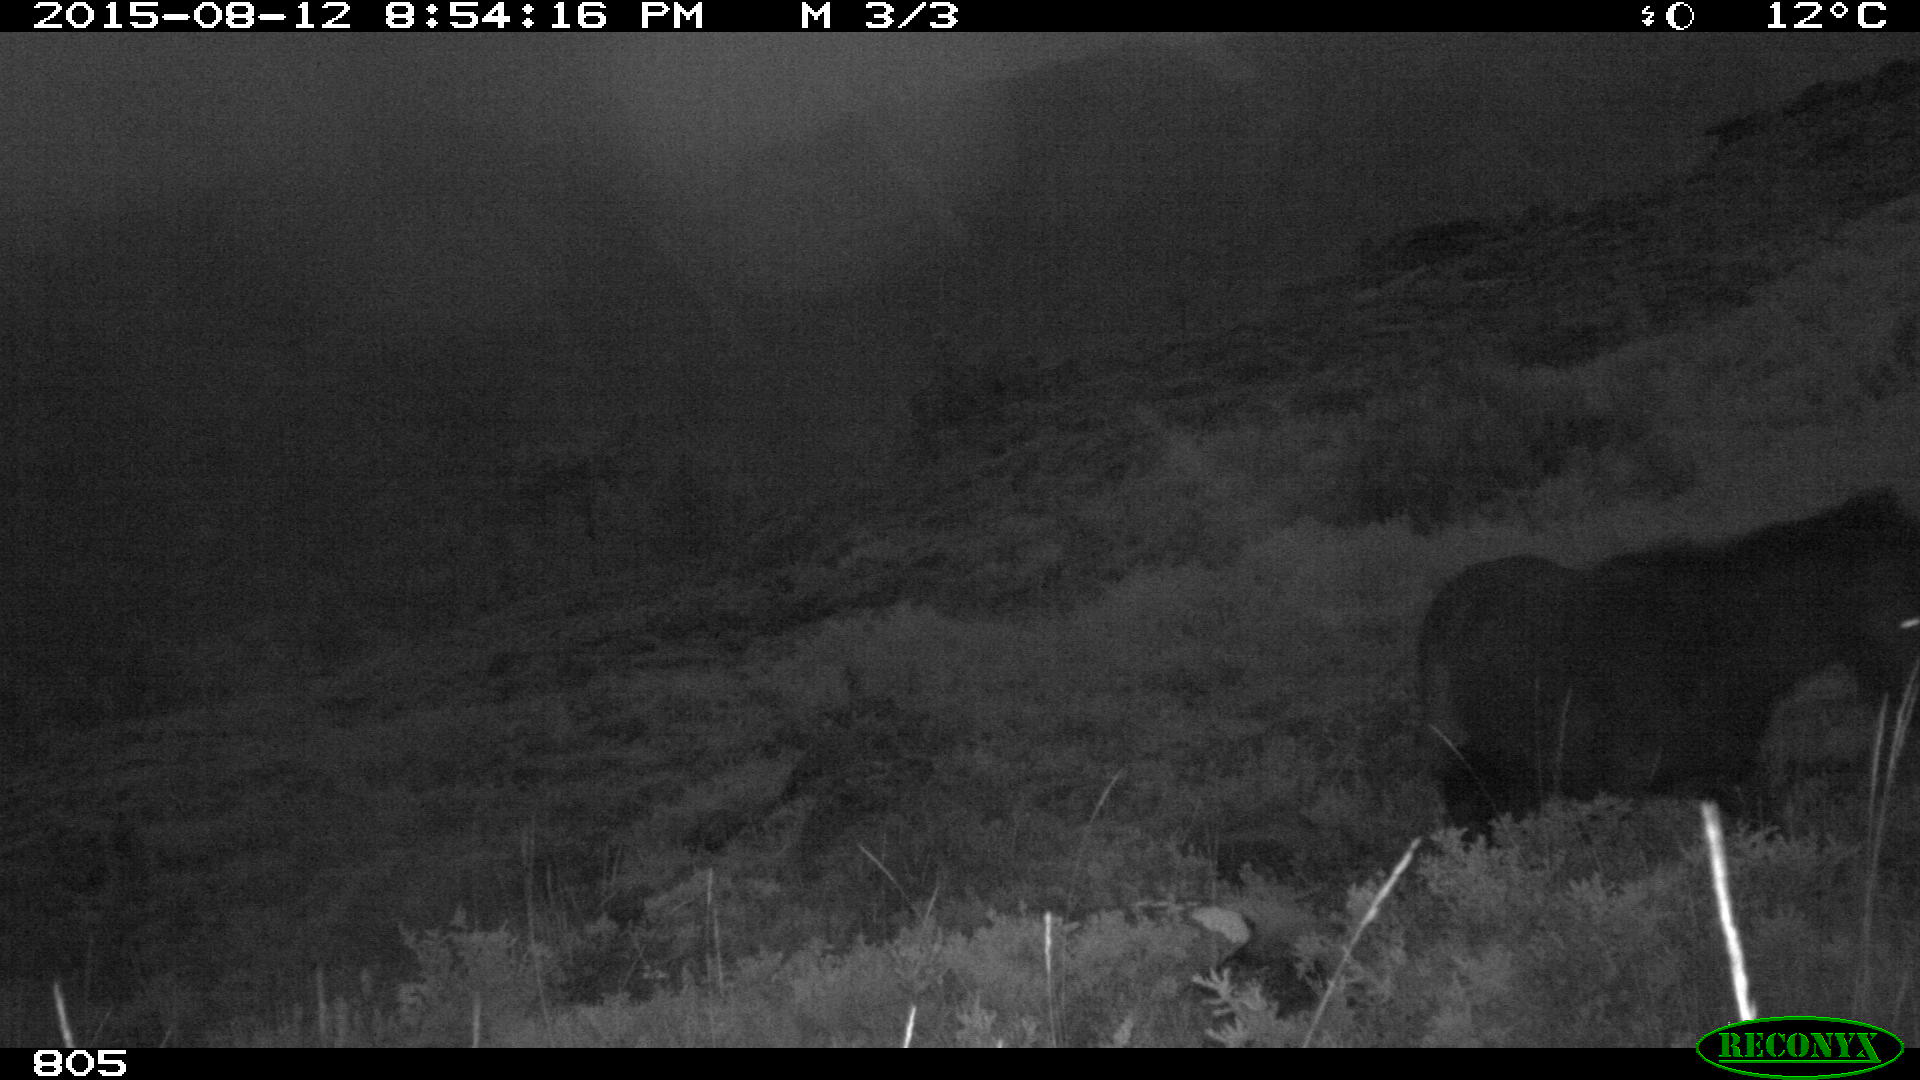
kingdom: Animalia
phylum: Chordata
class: Mammalia
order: Perissodactyla
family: Equidae
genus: Equus
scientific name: Equus caballus
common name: Horse
